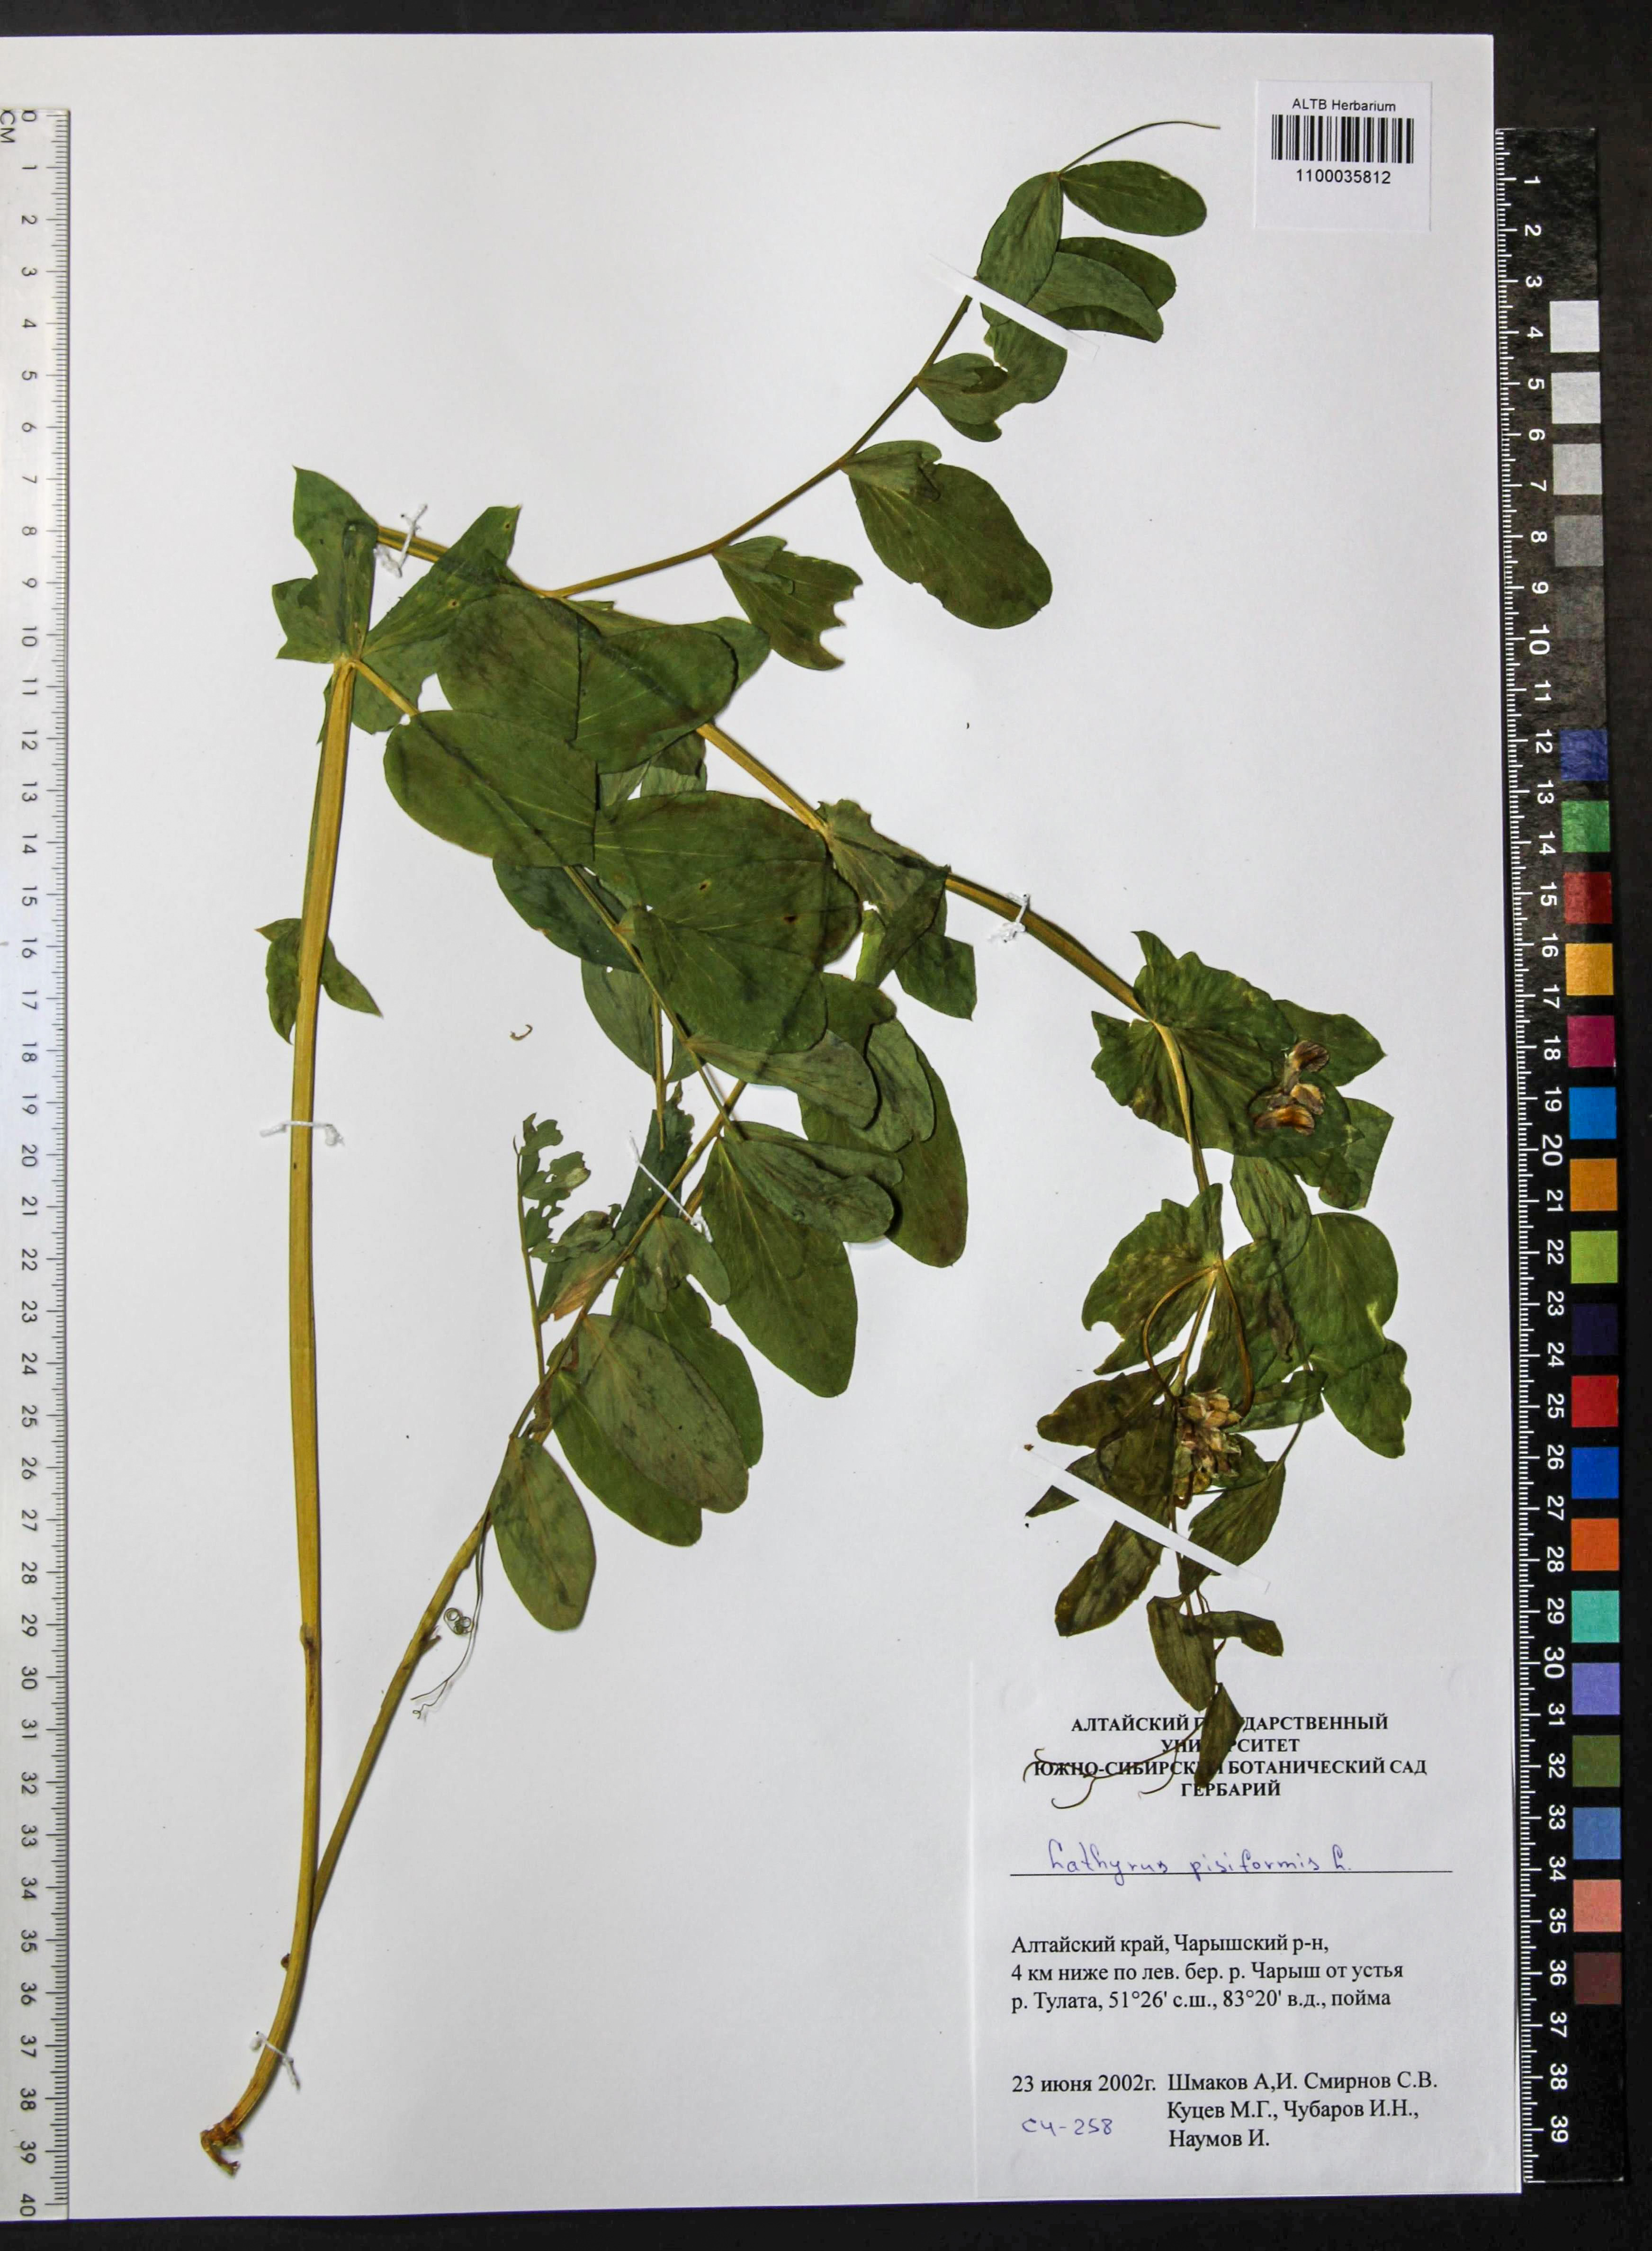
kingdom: Plantae
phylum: Tracheophyta
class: Magnoliopsida
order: Fabales
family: Fabaceae
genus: Lathyrus
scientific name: Lathyrus pisiformis
